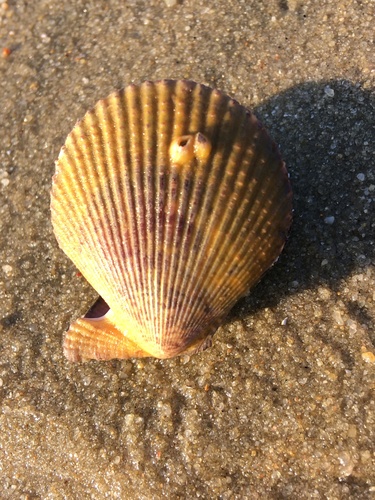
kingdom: Animalia
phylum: Mollusca
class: Bivalvia
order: Pectinida
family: Pectinidae
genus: Mimachlamys
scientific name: Mimachlamys varia
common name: Variegated scallop
